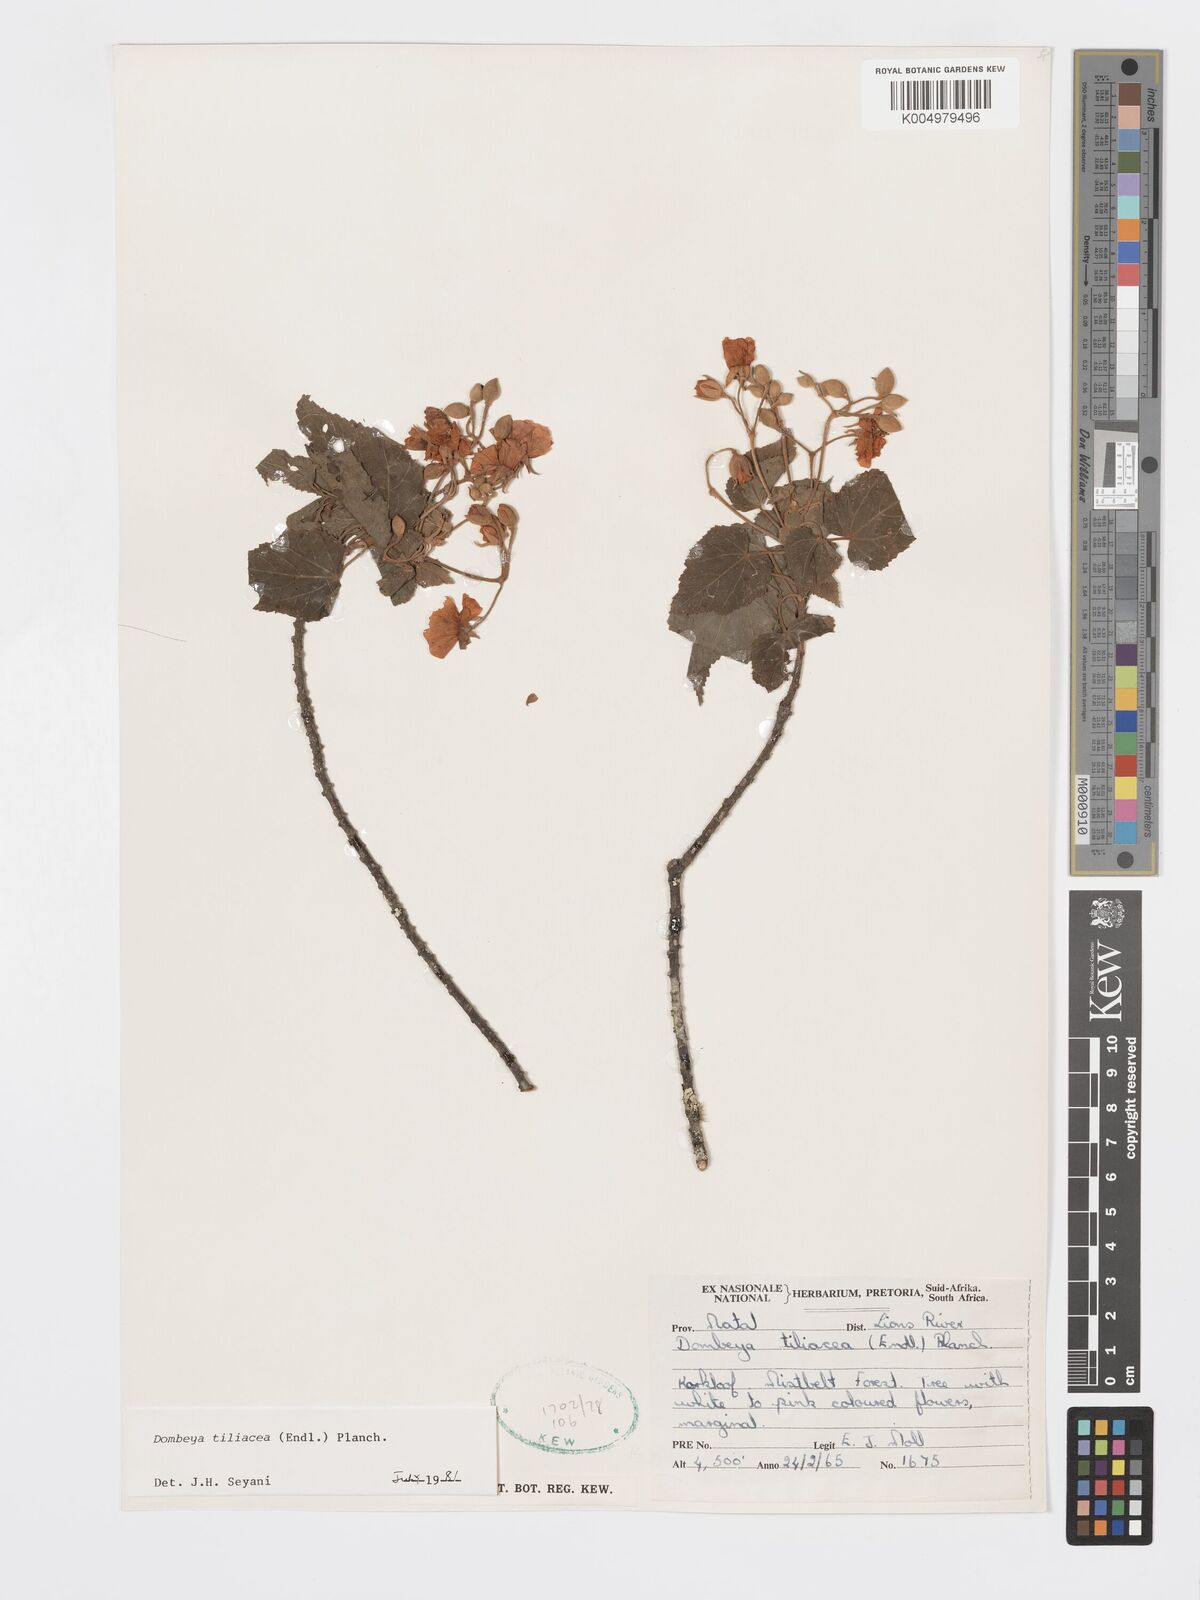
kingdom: Plantae
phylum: Tracheophyta
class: Magnoliopsida
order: Malvales
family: Malvaceae
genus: Dombeya
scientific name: Dombeya tiliacea
